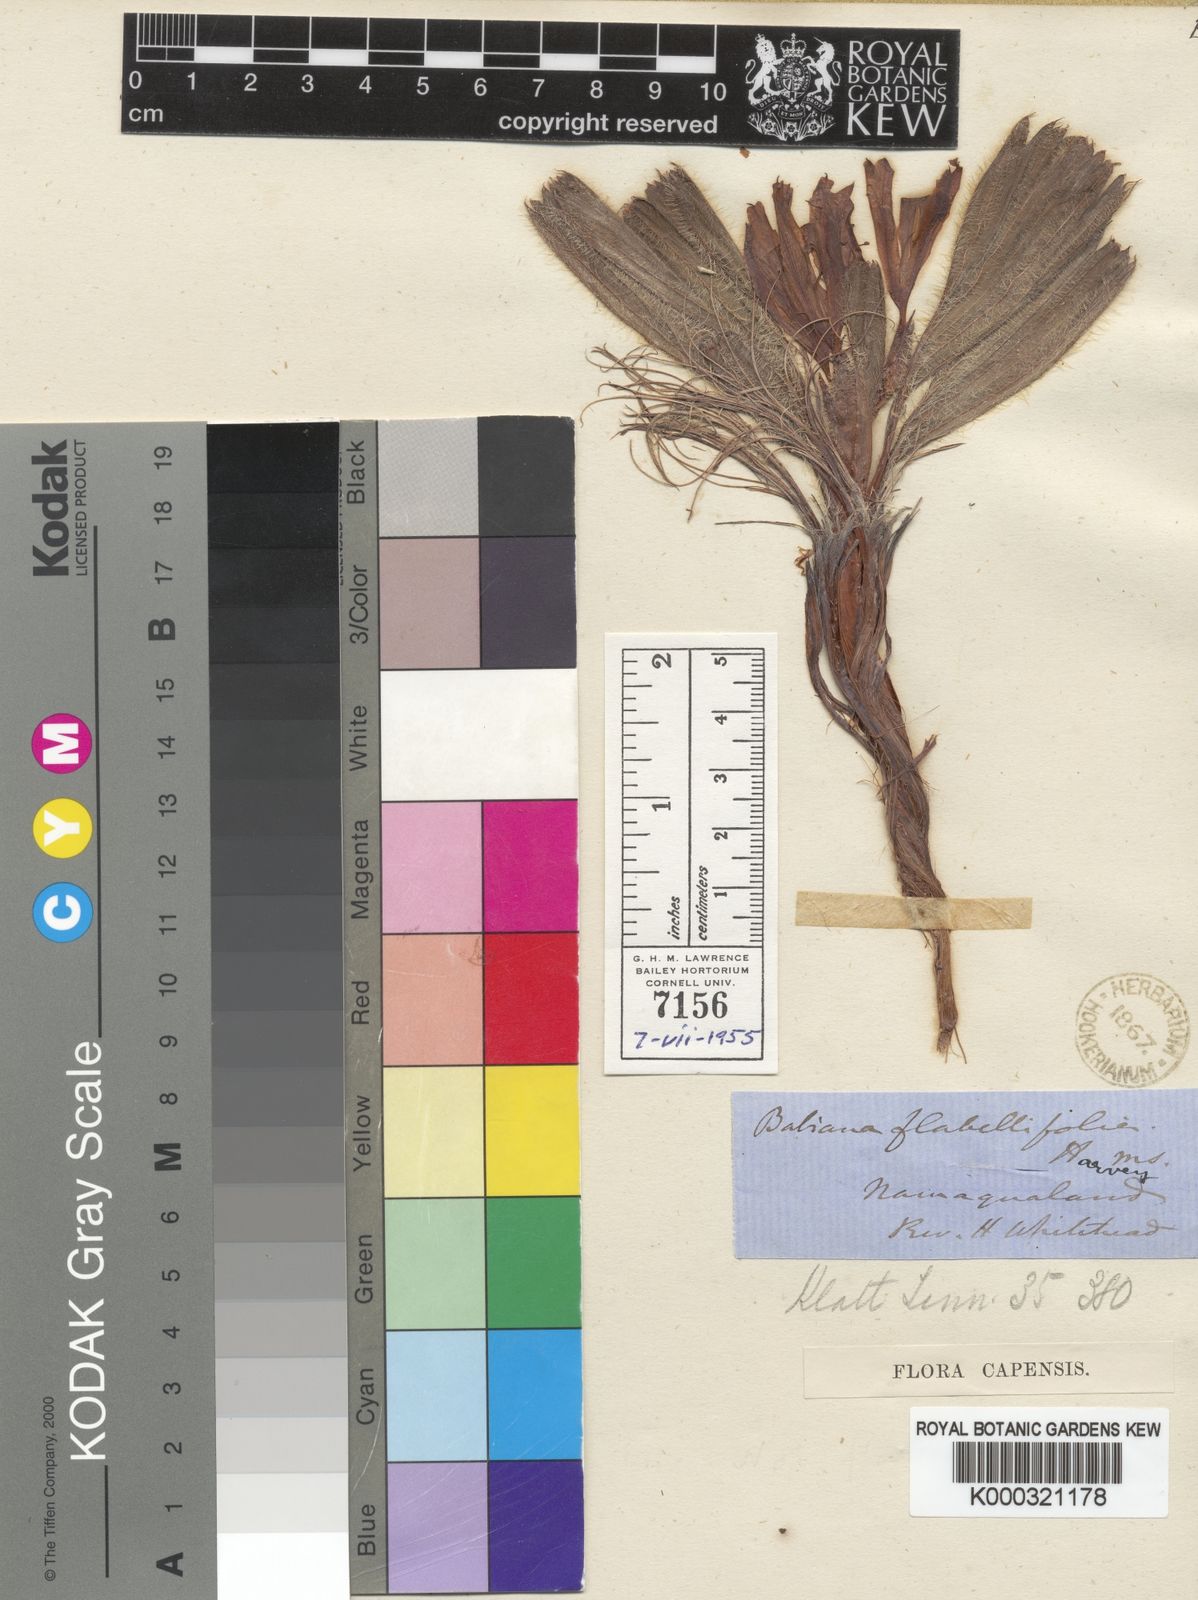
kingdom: Plantae
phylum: Tracheophyta
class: Liliopsida
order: Asparagales
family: Iridaceae
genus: Babiana
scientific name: Babiana flabellifolia
